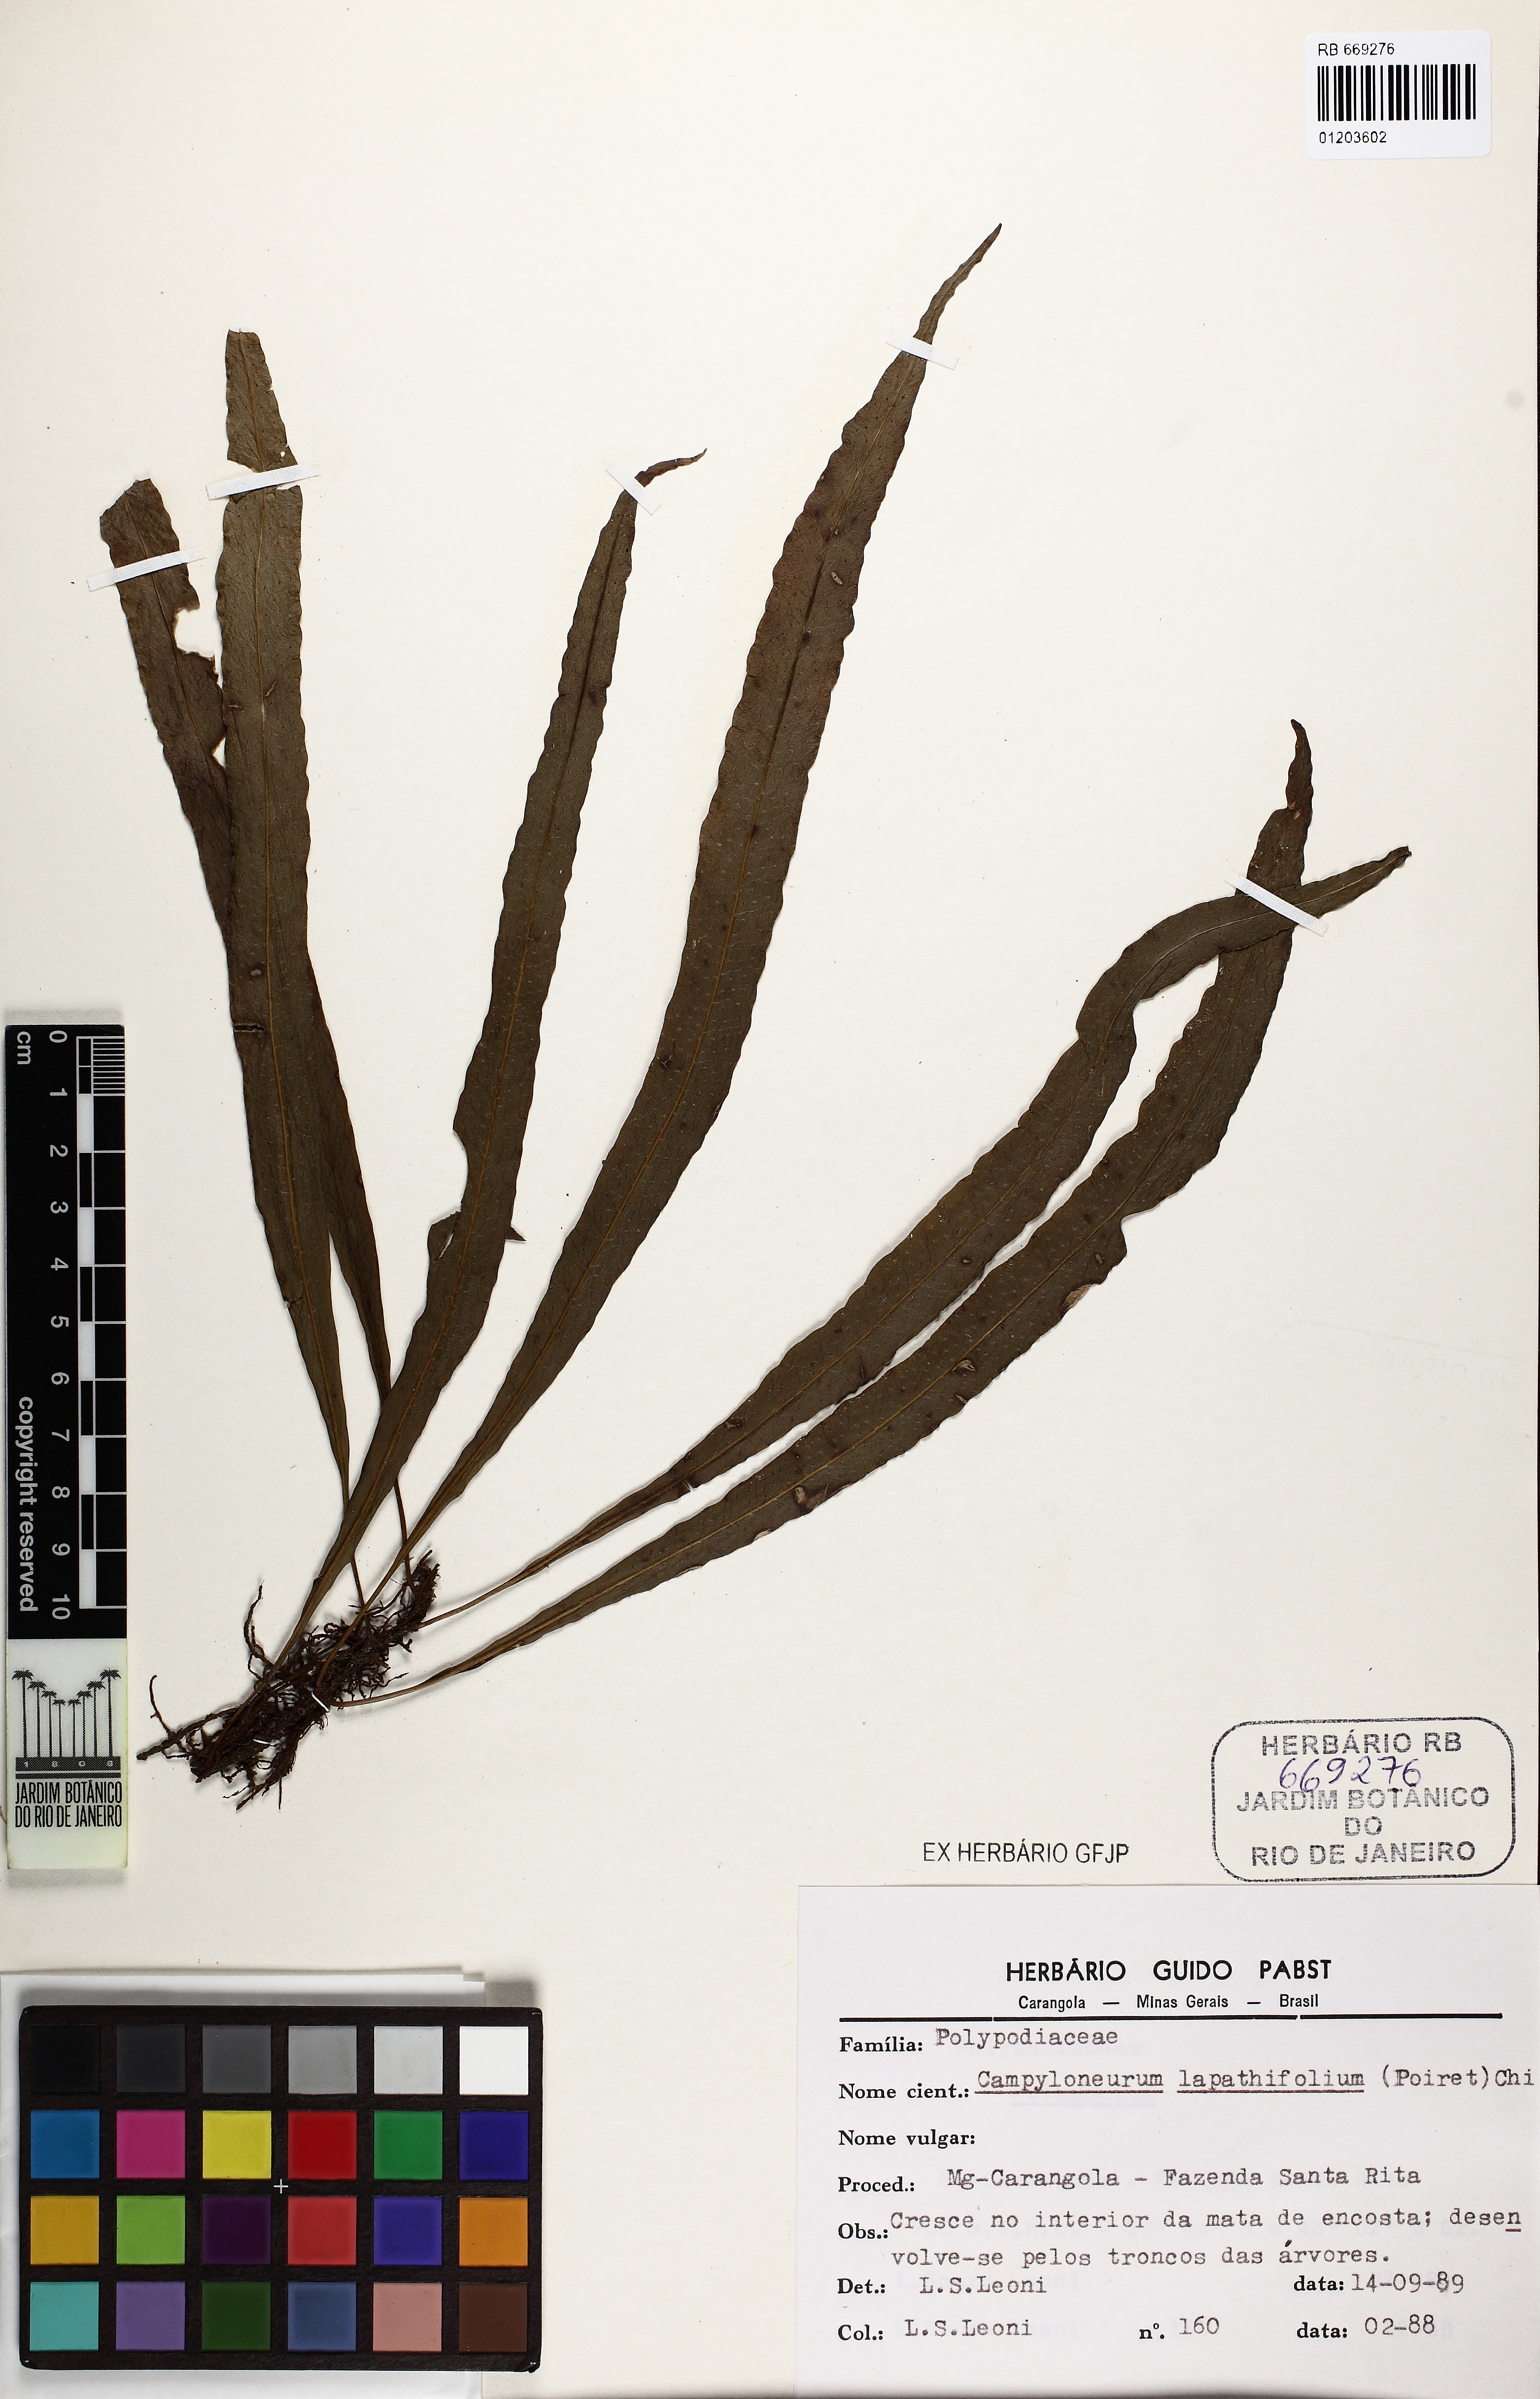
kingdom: Plantae
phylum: Tracheophyta
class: Polypodiopsida
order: Polypodiales
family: Polypodiaceae
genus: Campyloneurum
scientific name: Campyloneurum repens
